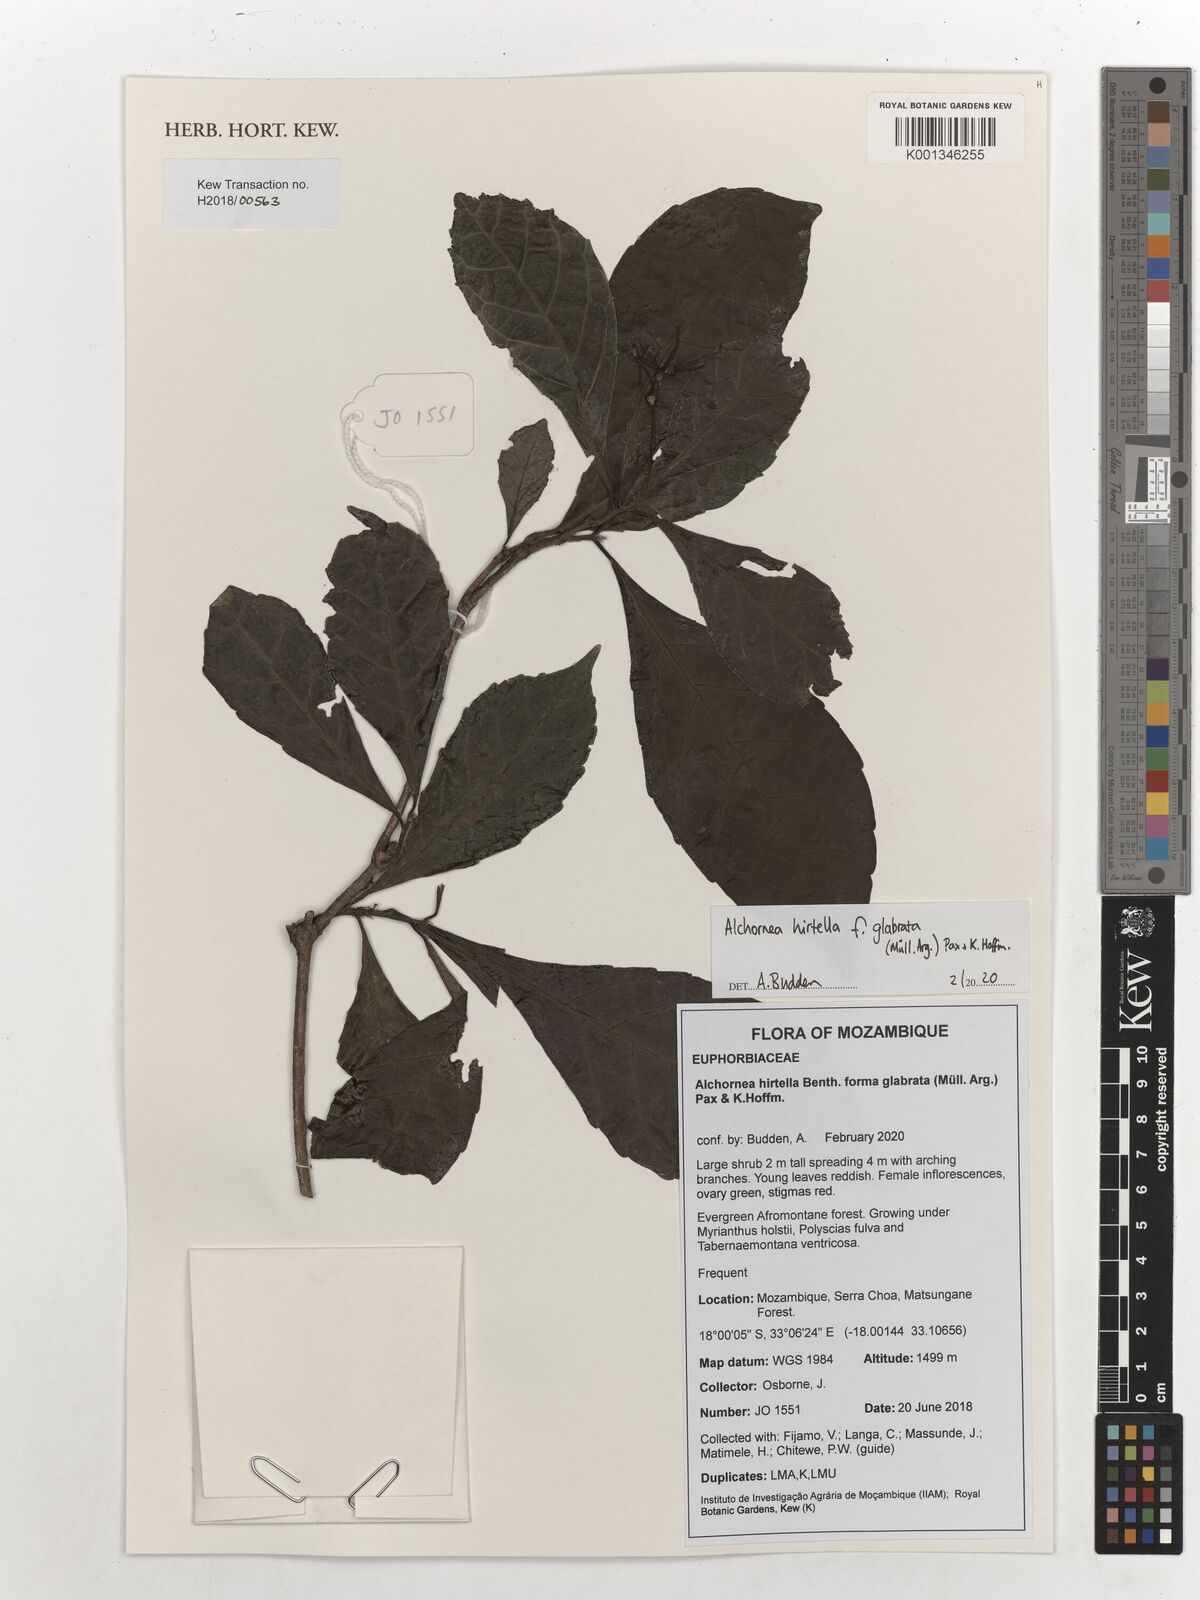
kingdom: Plantae
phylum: Tracheophyta
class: Magnoliopsida
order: Malpighiales
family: Euphorbiaceae
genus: Alchornea
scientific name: Alchornea hirtella
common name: Forest bead-string
